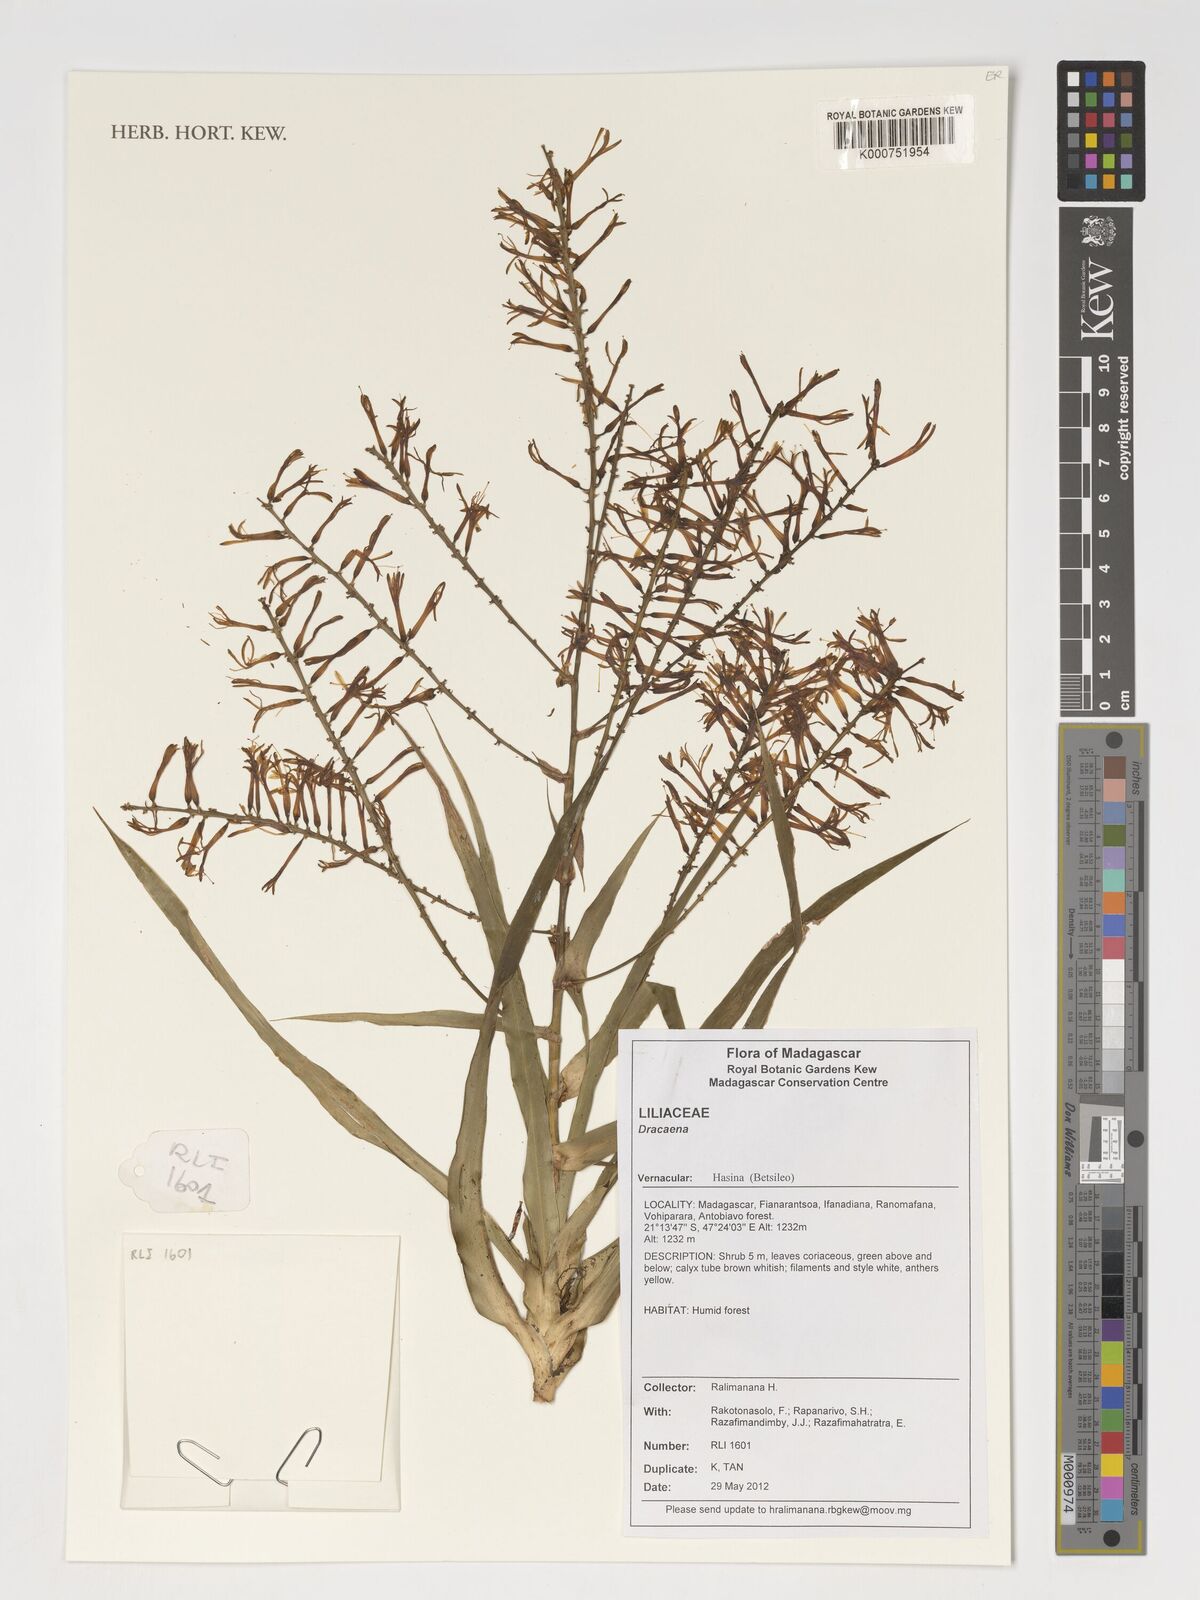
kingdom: Plantae
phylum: Tracheophyta
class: Liliopsida
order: Asparagales
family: Asparagaceae
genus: Dracaena
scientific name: Dracaena
